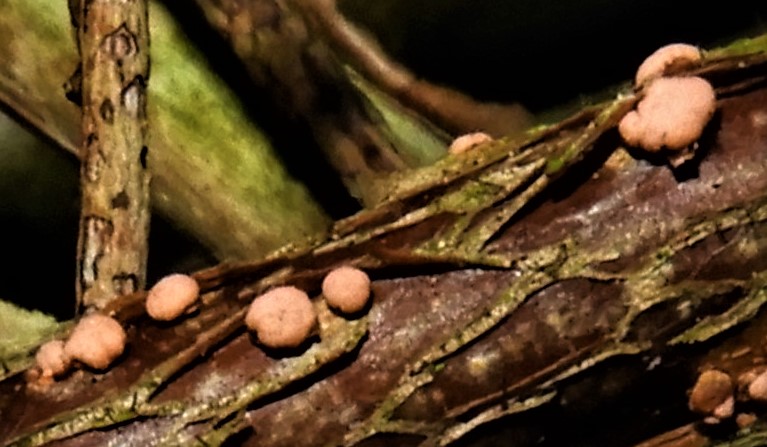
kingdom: Fungi
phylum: Ascomycota
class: Sordariomycetes
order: Hypocreales
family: Nectriaceae
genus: Nectria
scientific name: Nectria cinnabarina
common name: almindelig cinnobersvamp
